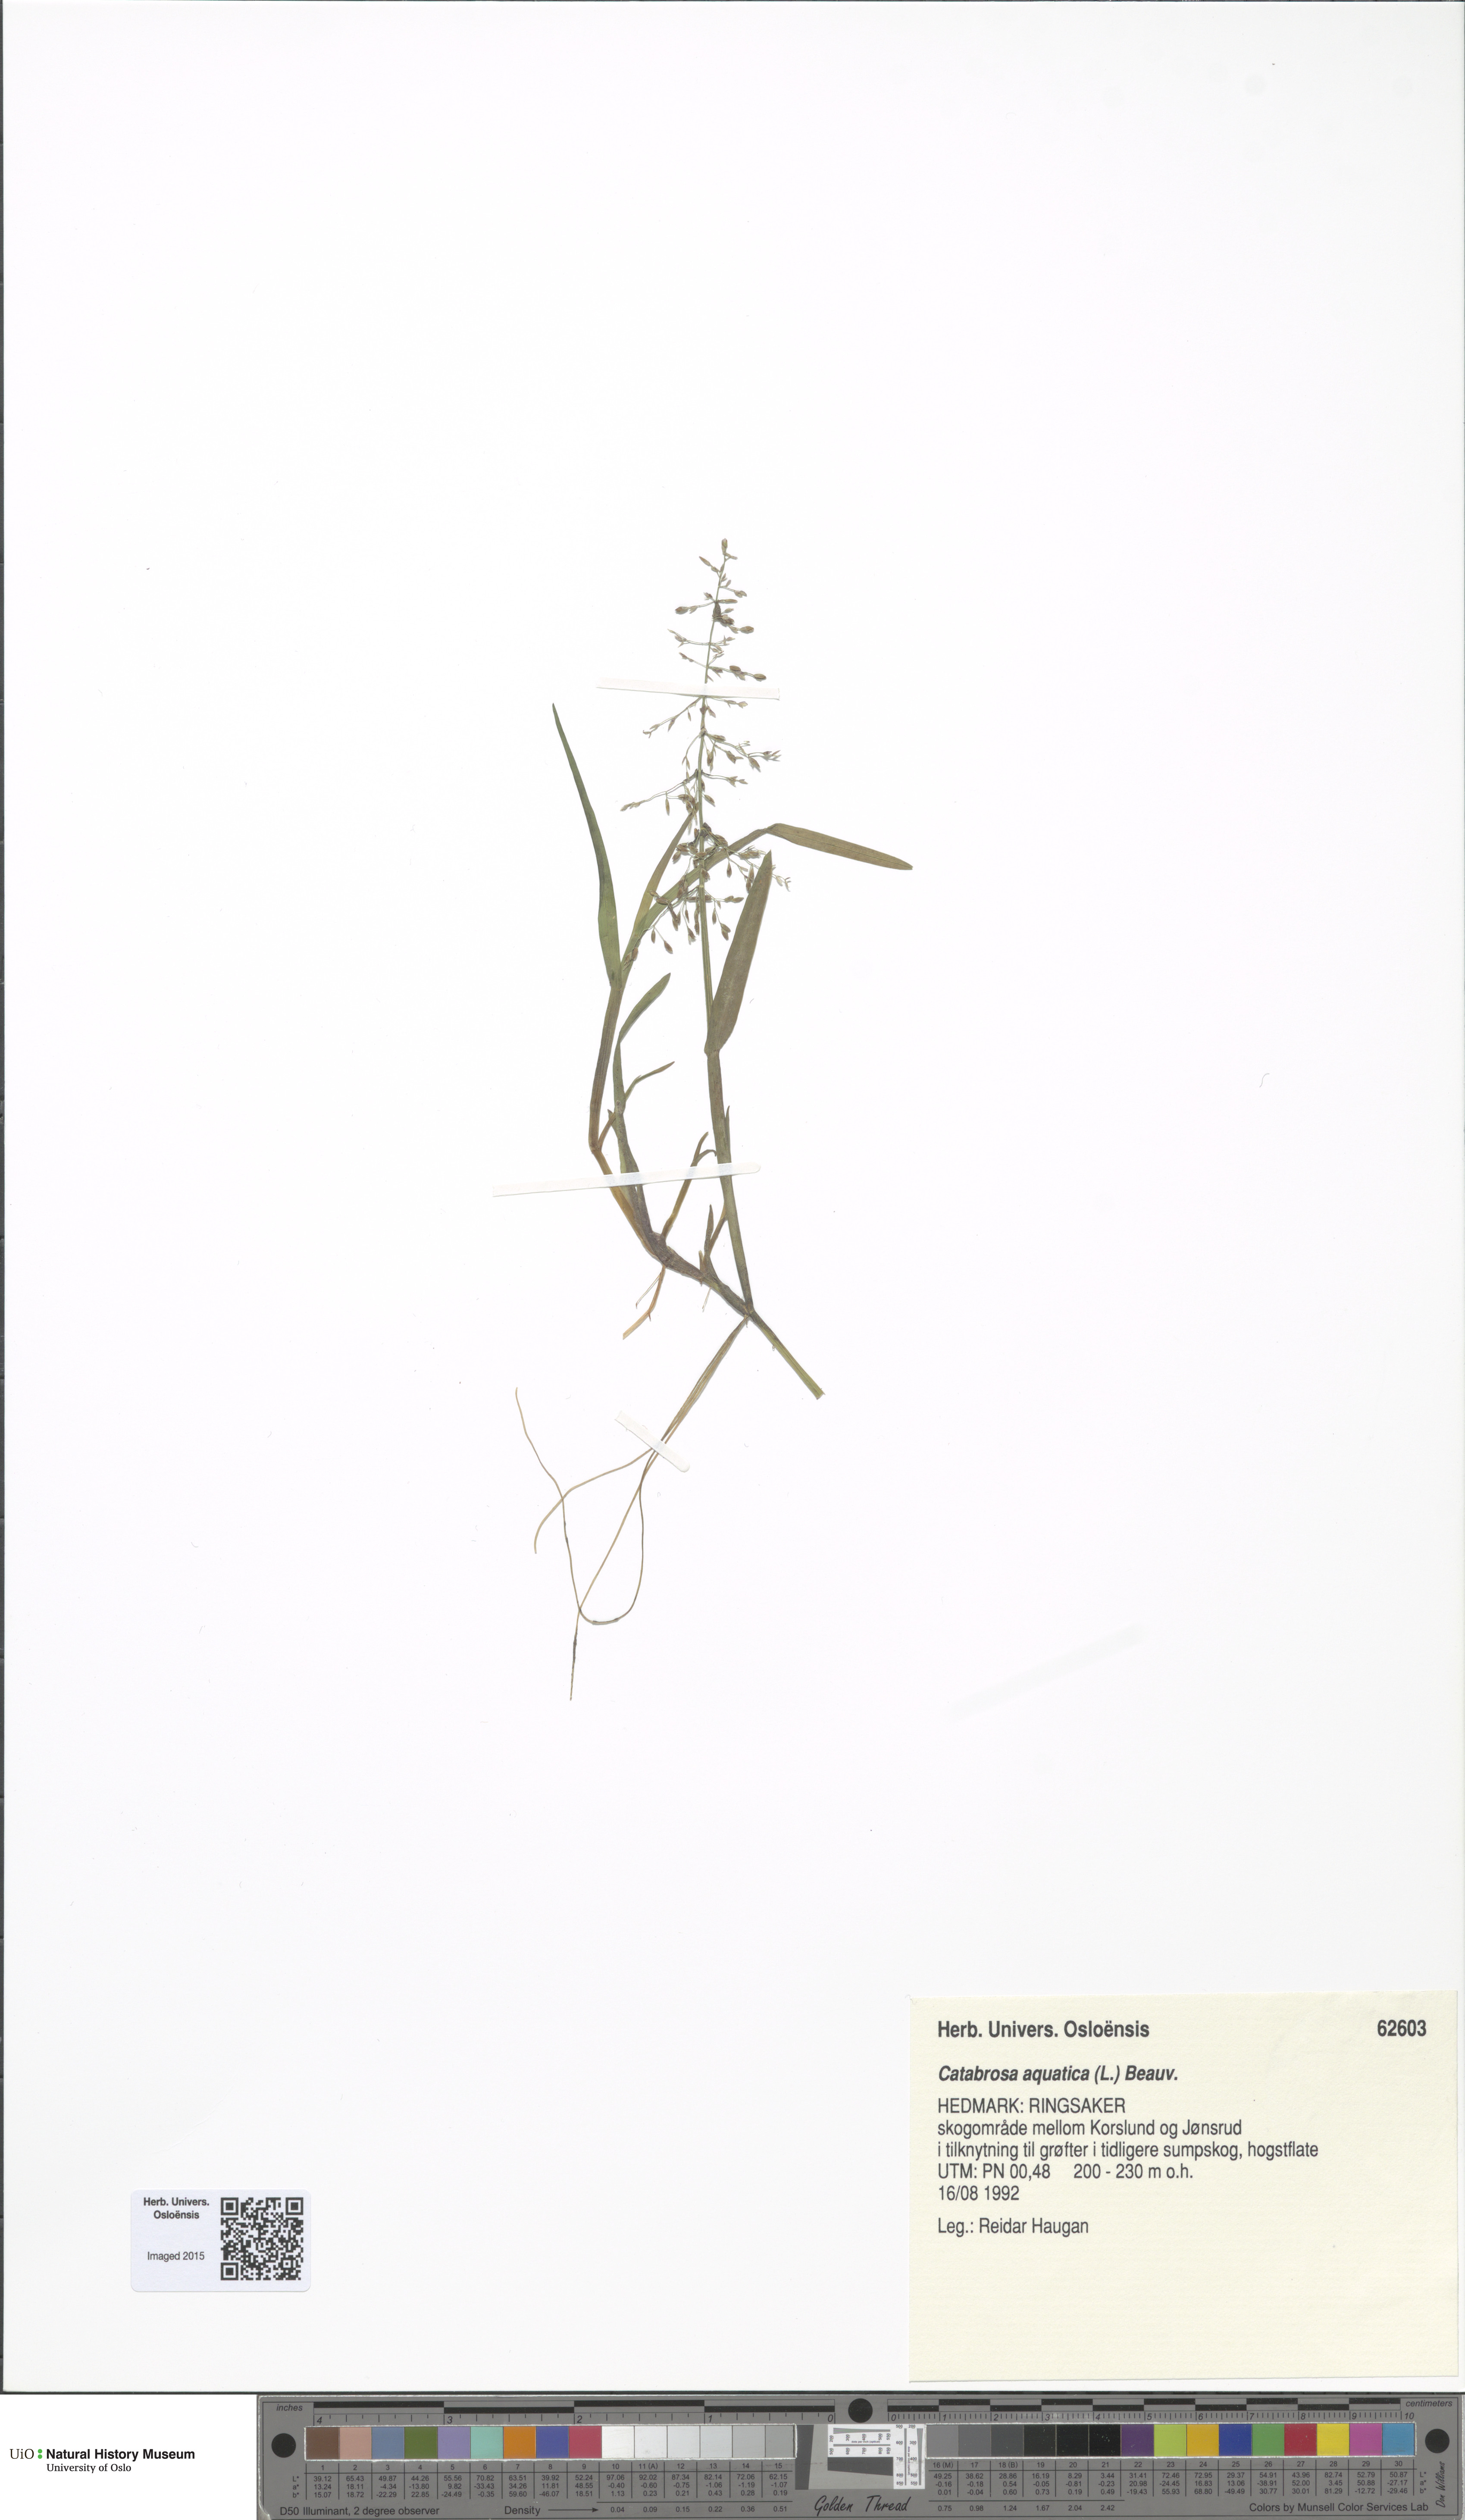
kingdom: Plantae
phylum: Tracheophyta
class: Liliopsida
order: Poales
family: Poaceae
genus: Catabrosa
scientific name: Catabrosa aquatica
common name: Whorl-grass
